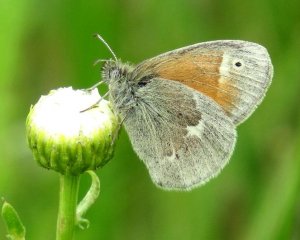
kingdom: Animalia
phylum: Arthropoda
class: Insecta
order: Lepidoptera
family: Nymphalidae
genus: Coenonympha
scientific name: Coenonympha tullia
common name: Large Heath
